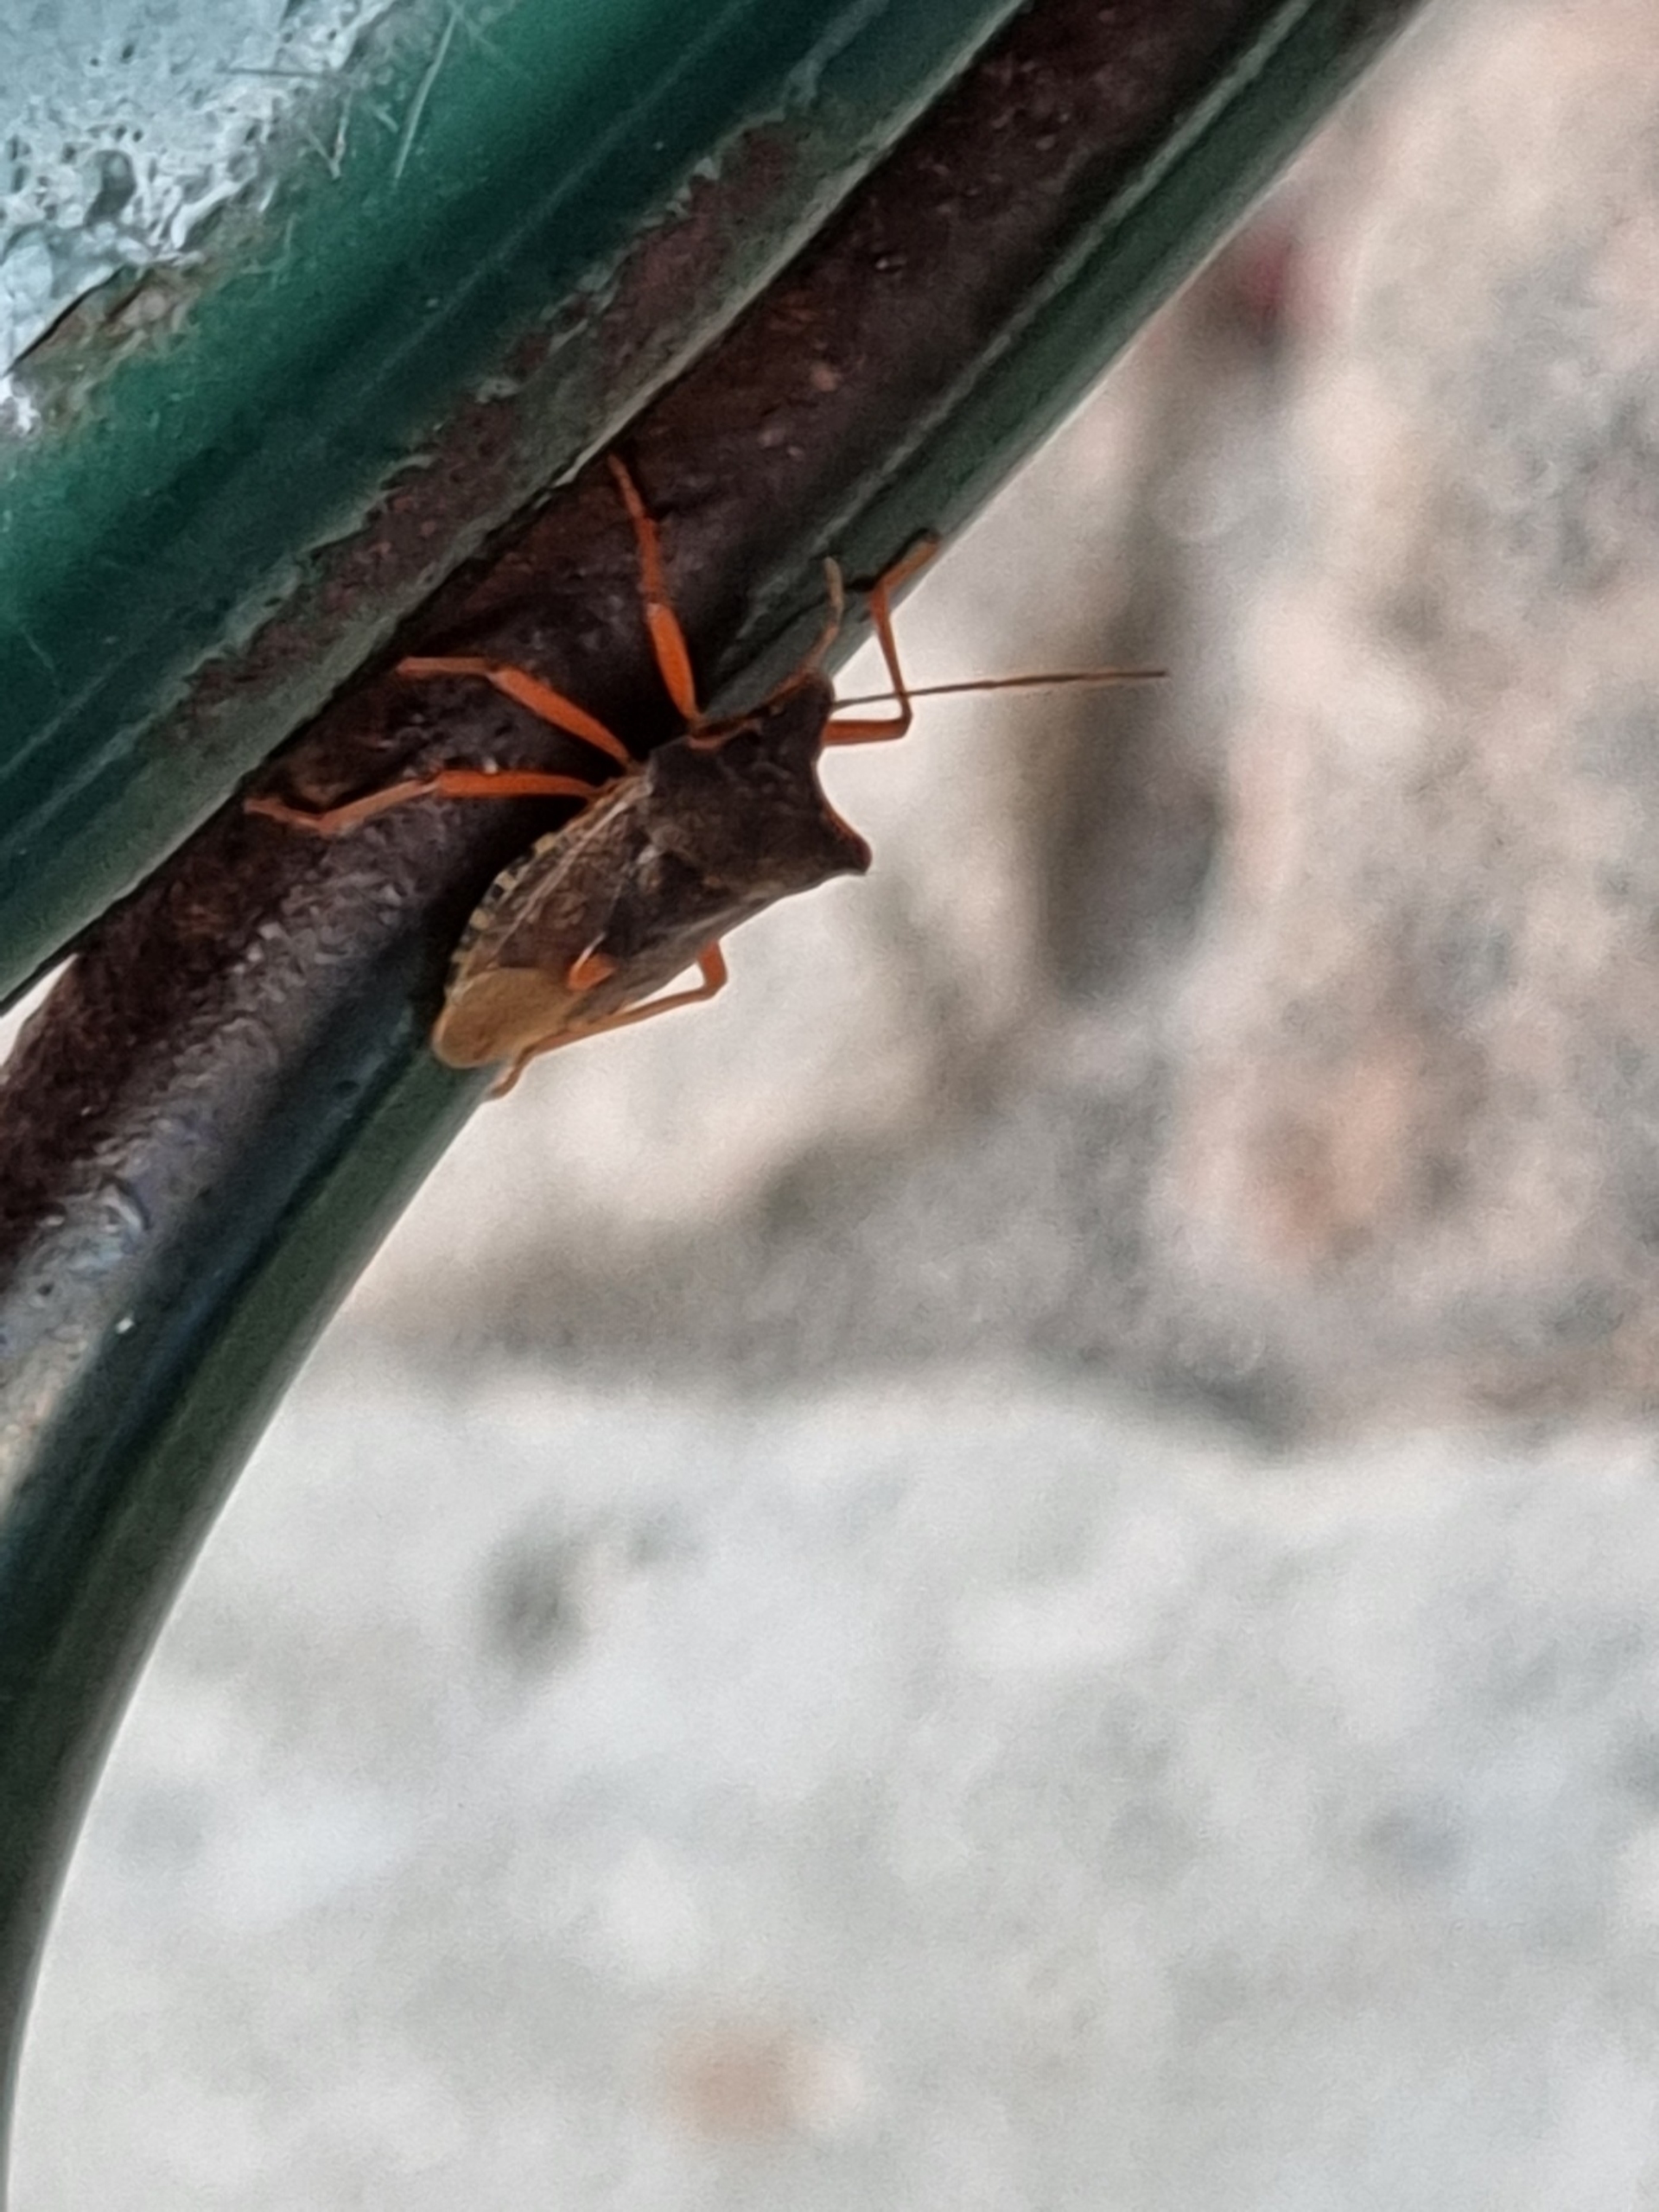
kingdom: Animalia
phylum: Arthropoda
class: Insecta
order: Hemiptera
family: Pentatomidae
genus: Pentatoma
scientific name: Pentatoma rufipes
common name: Rødbenet bredtæge
